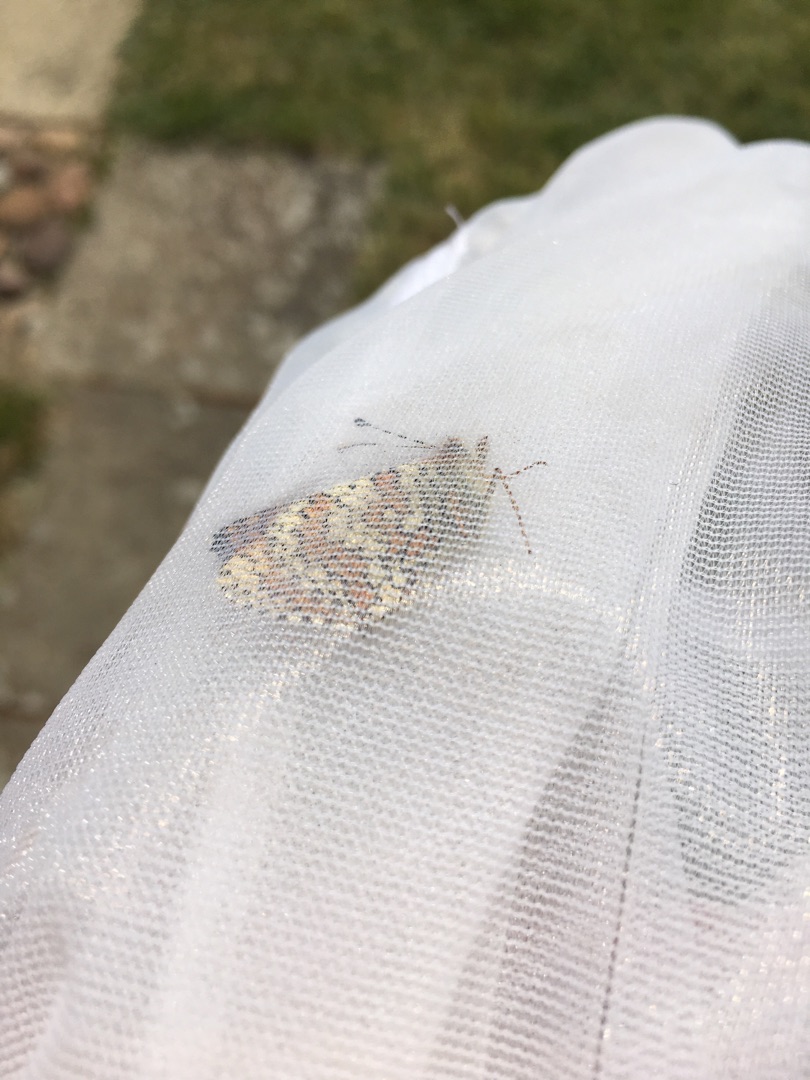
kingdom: Animalia
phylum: Arthropoda
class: Insecta
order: Lepidoptera
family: Nymphalidae
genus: Melitaea
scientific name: Melitaea cinxia
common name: Okkergul pletvinge
